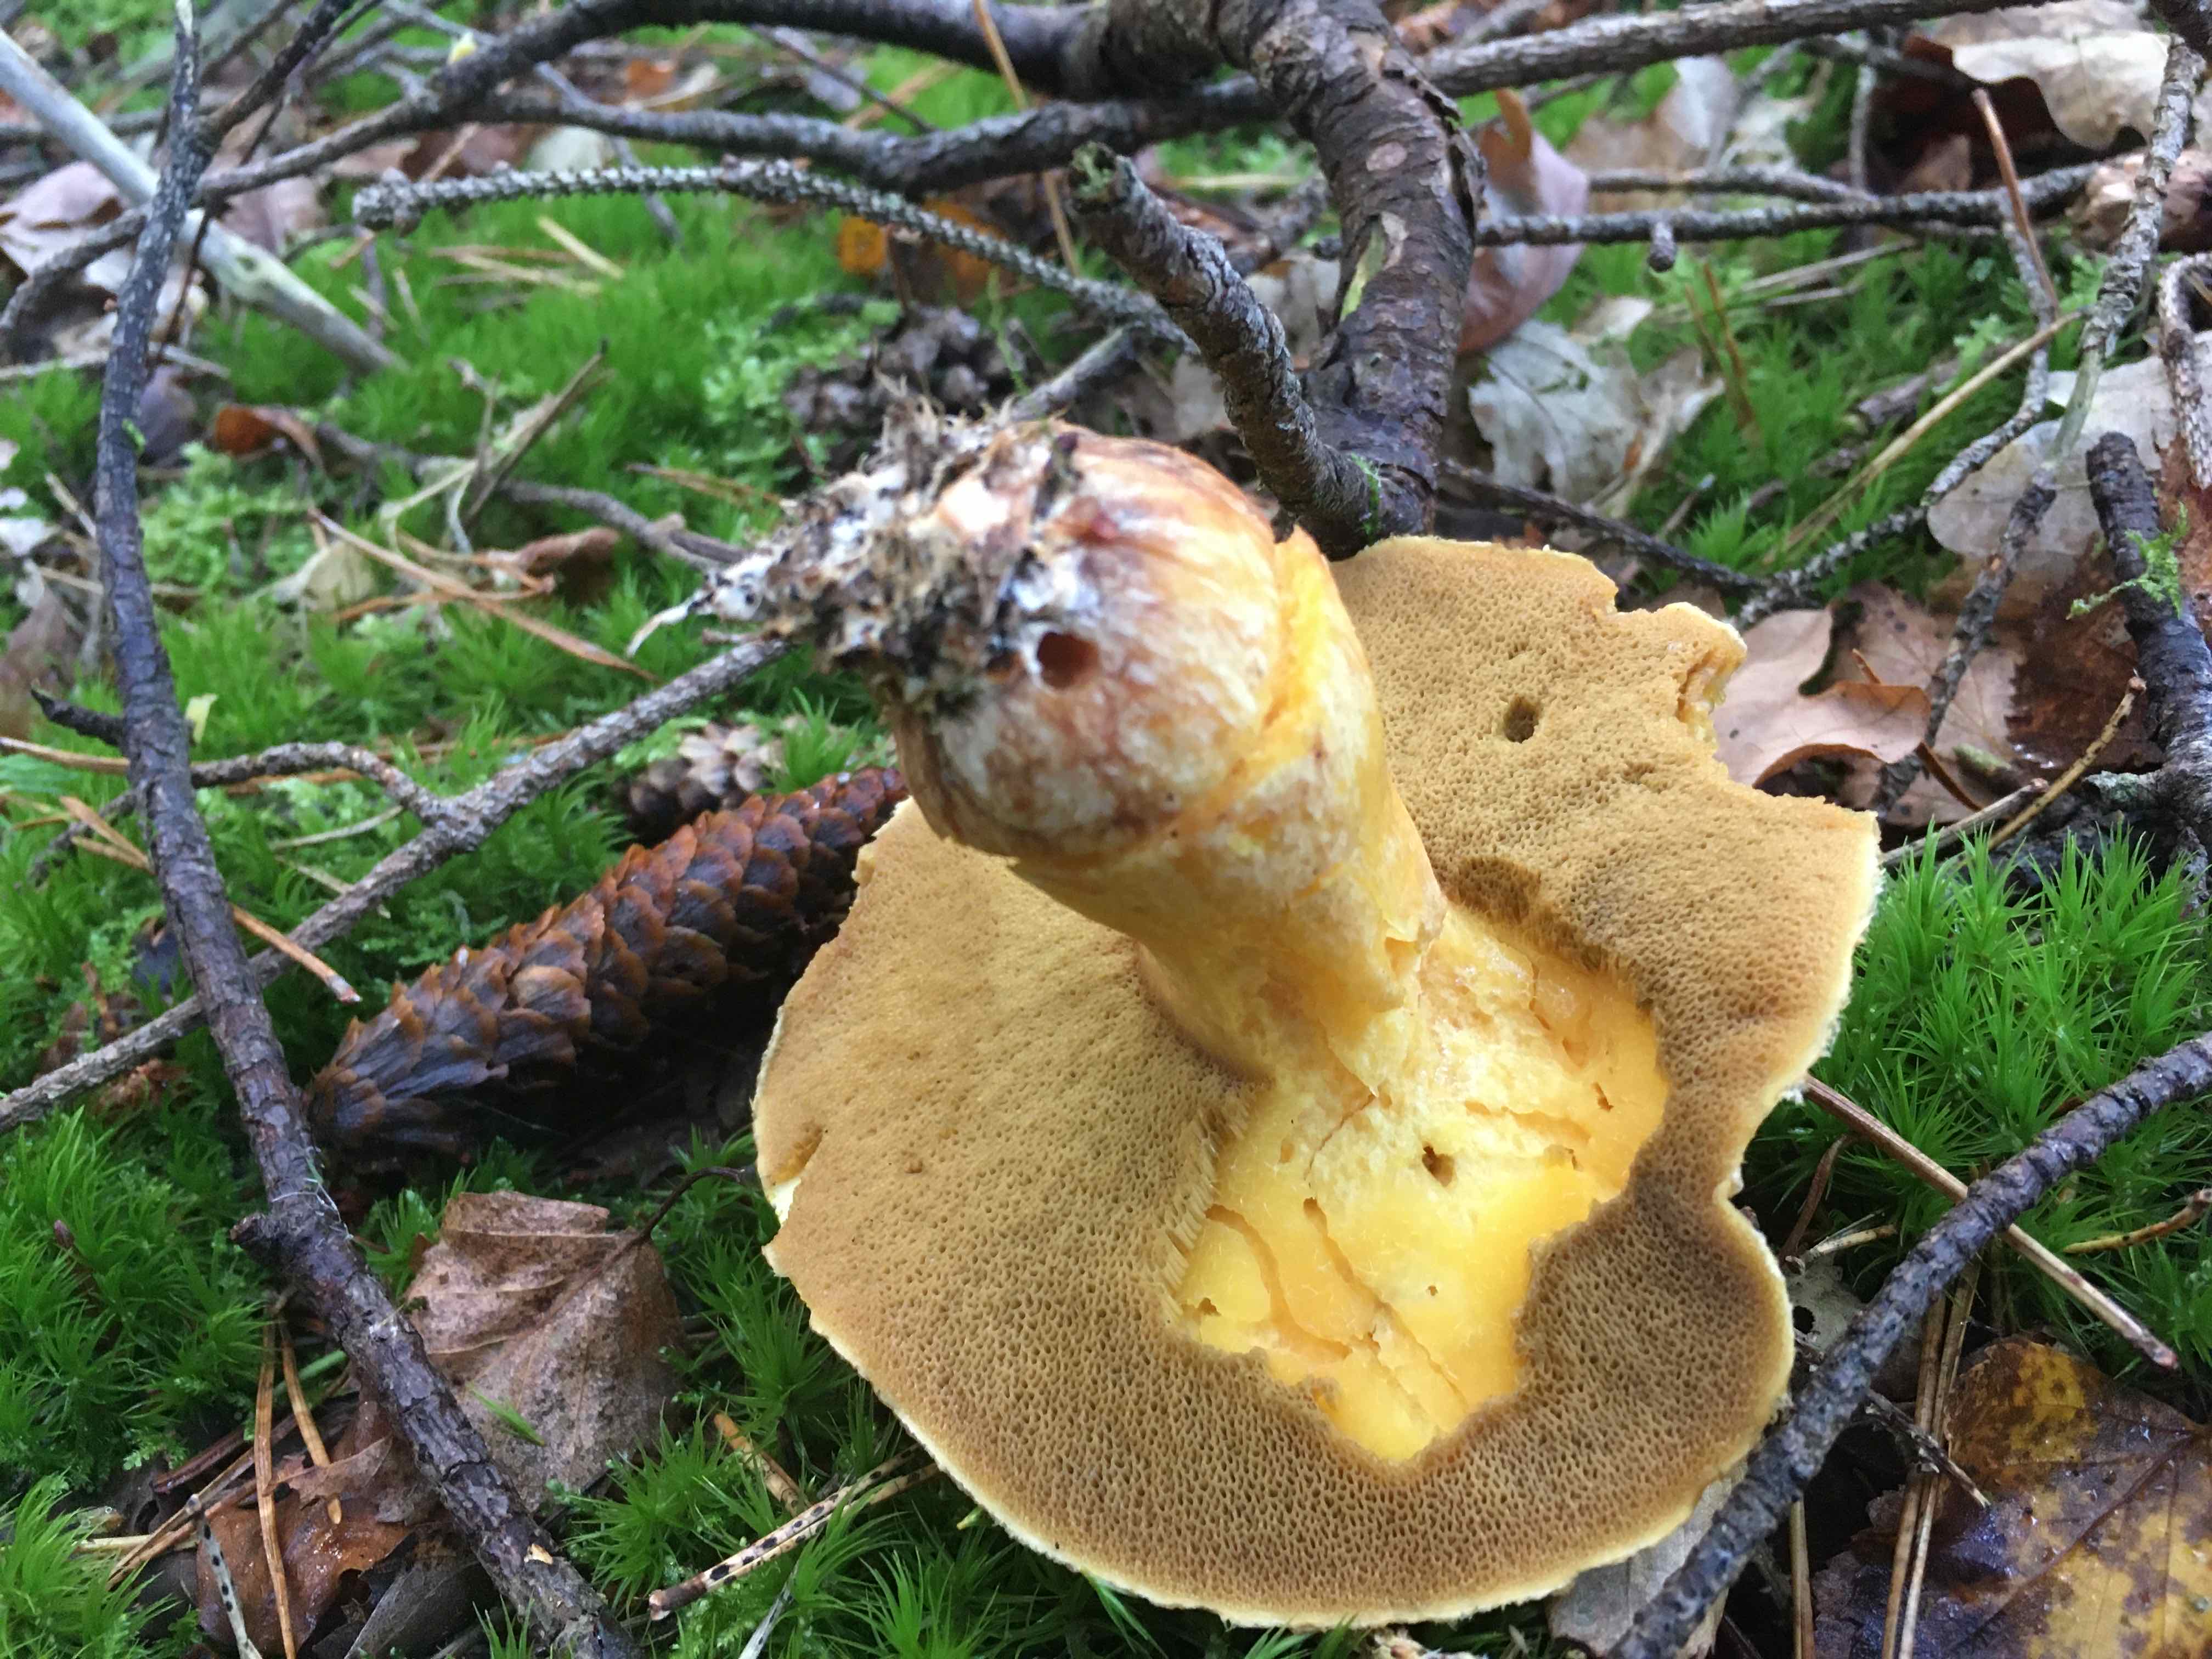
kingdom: Fungi
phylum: Basidiomycota
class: Agaricomycetes
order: Boletales
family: Suillaceae
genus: Suillus
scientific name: Suillus variegatus
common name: broget slimrørhat
